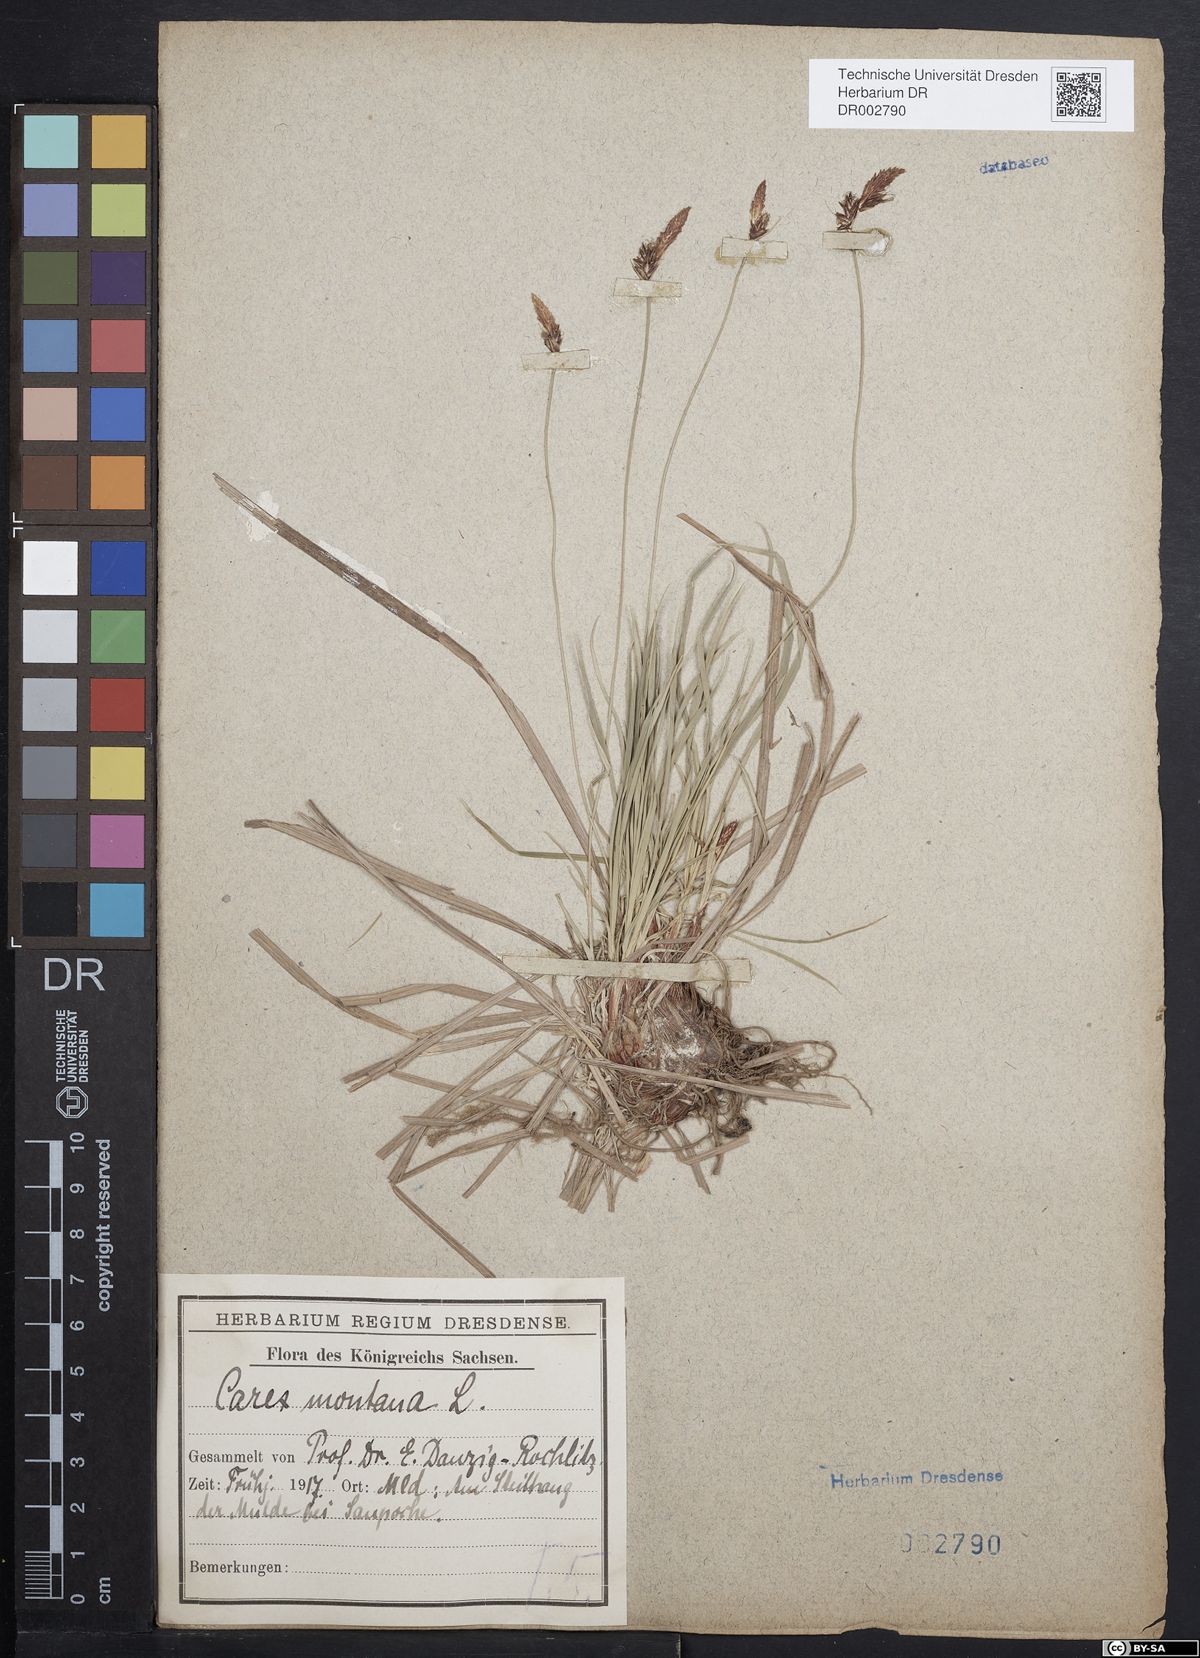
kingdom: Plantae
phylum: Tracheophyta
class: Liliopsida
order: Poales
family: Cyperaceae
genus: Carex
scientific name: Carex montana
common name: Soft-leaved sedge
